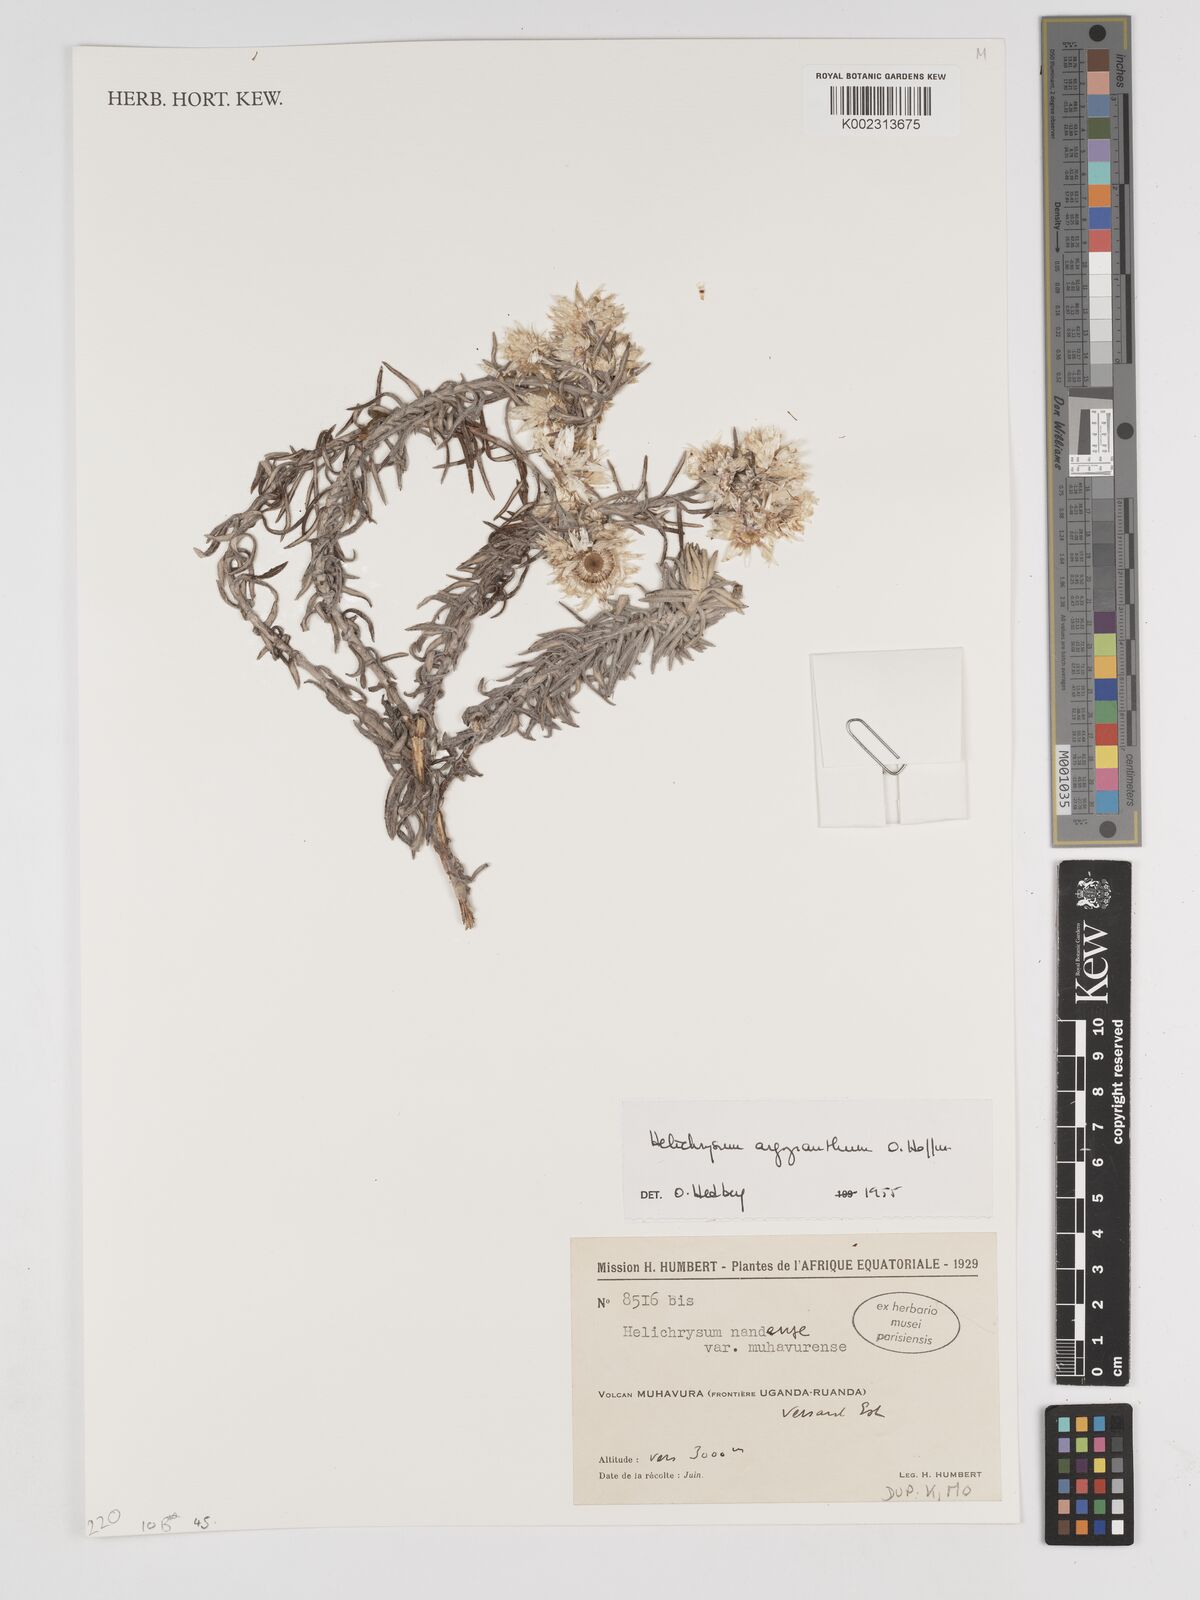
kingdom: Plantae
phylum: Tracheophyta
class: Magnoliopsida
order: Asterales
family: Asteraceae
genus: Helichrysum
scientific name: Helichrysum argyranthum
